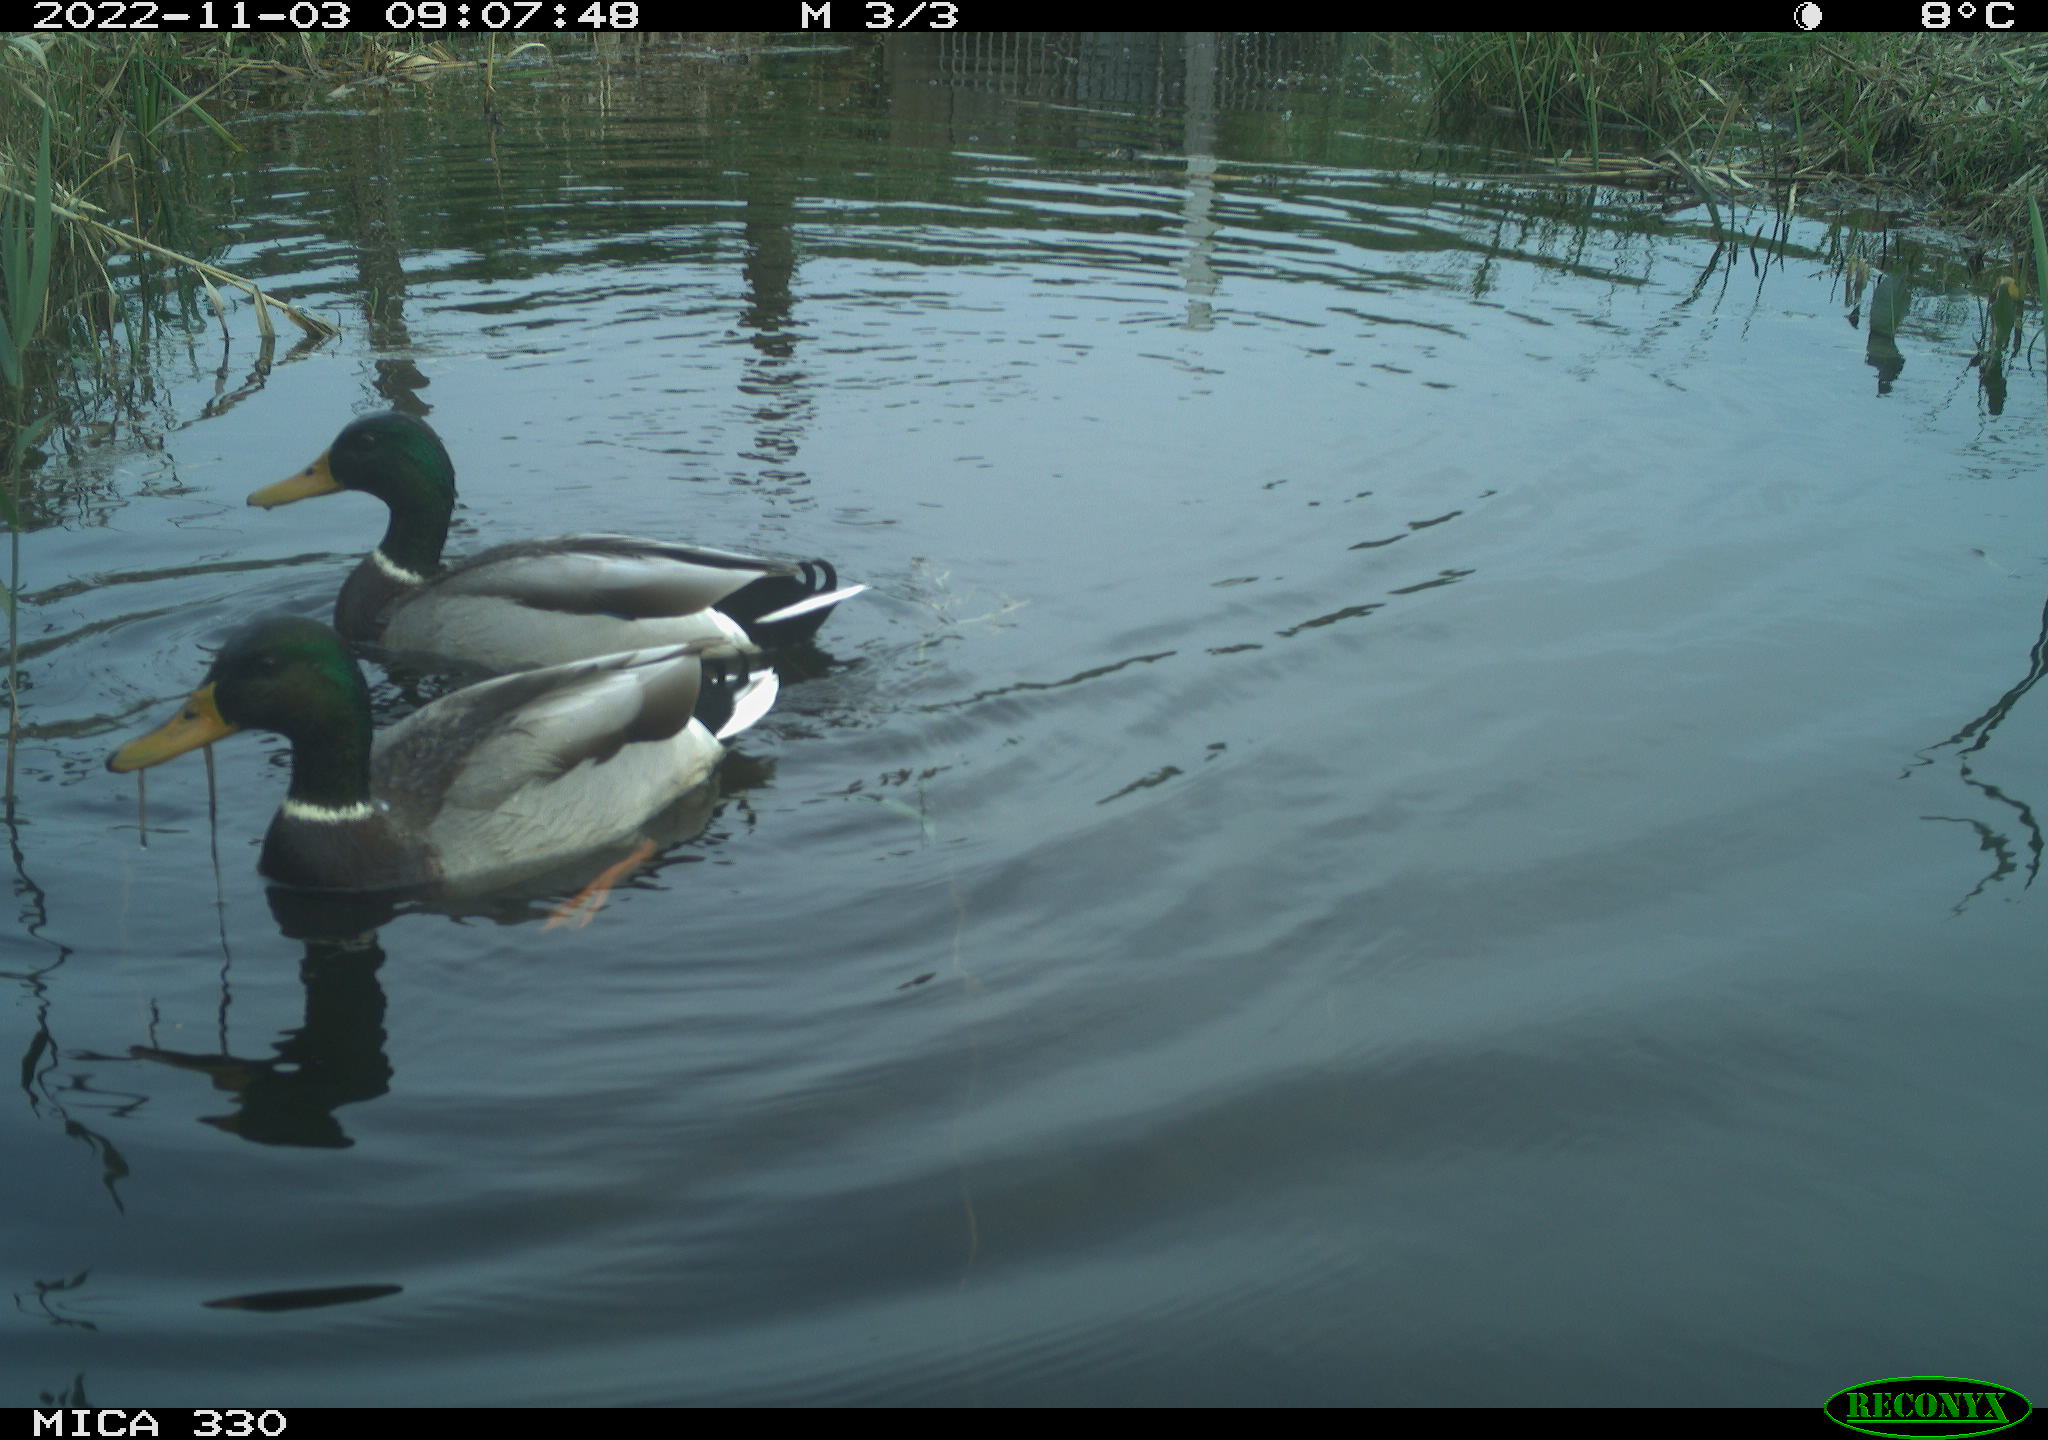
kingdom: Animalia
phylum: Chordata
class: Aves
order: Anseriformes
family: Anatidae
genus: Anas
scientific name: Anas
